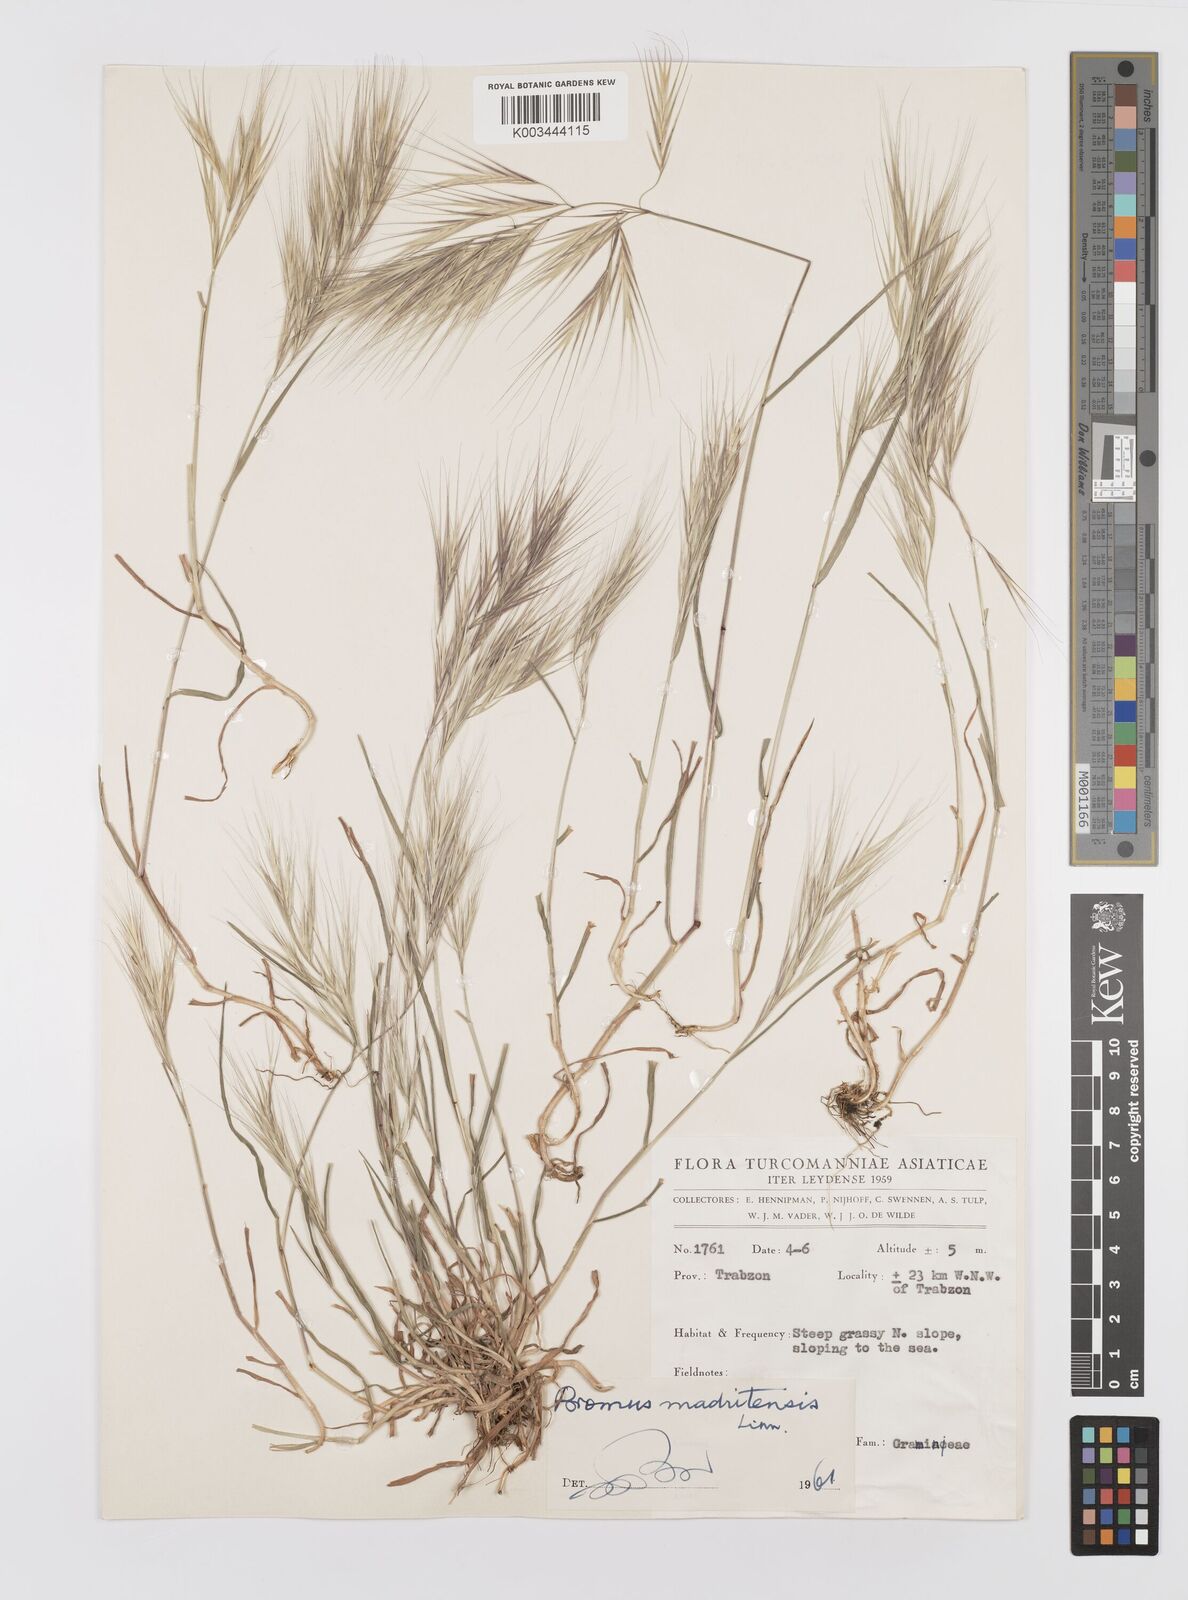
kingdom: Plantae
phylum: Tracheophyta
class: Liliopsida
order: Poales
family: Poaceae
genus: Bromus
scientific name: Bromus madritensis
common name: Compact brome
